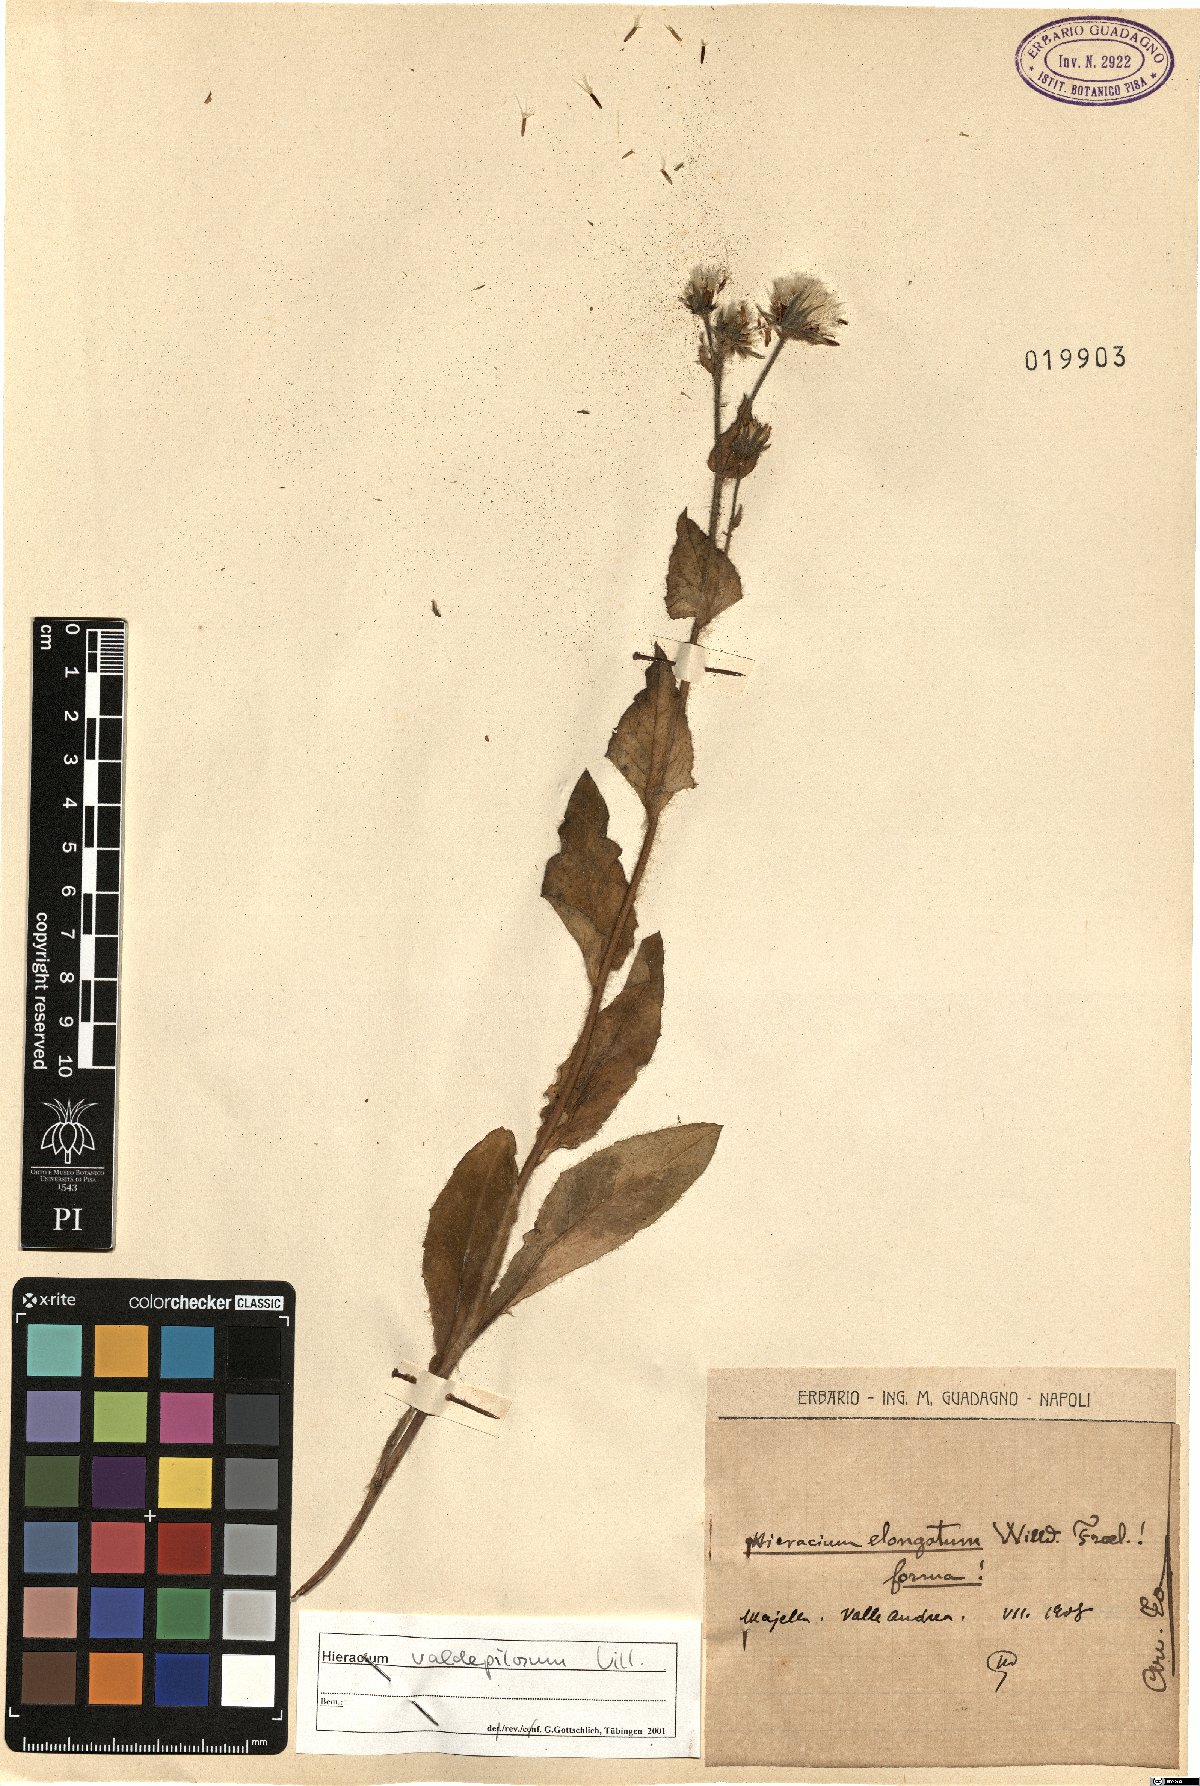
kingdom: Plantae
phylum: Tracheophyta
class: Magnoliopsida
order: Asterales
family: Asteraceae
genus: Hieracium
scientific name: Hieracium valdepilosum
